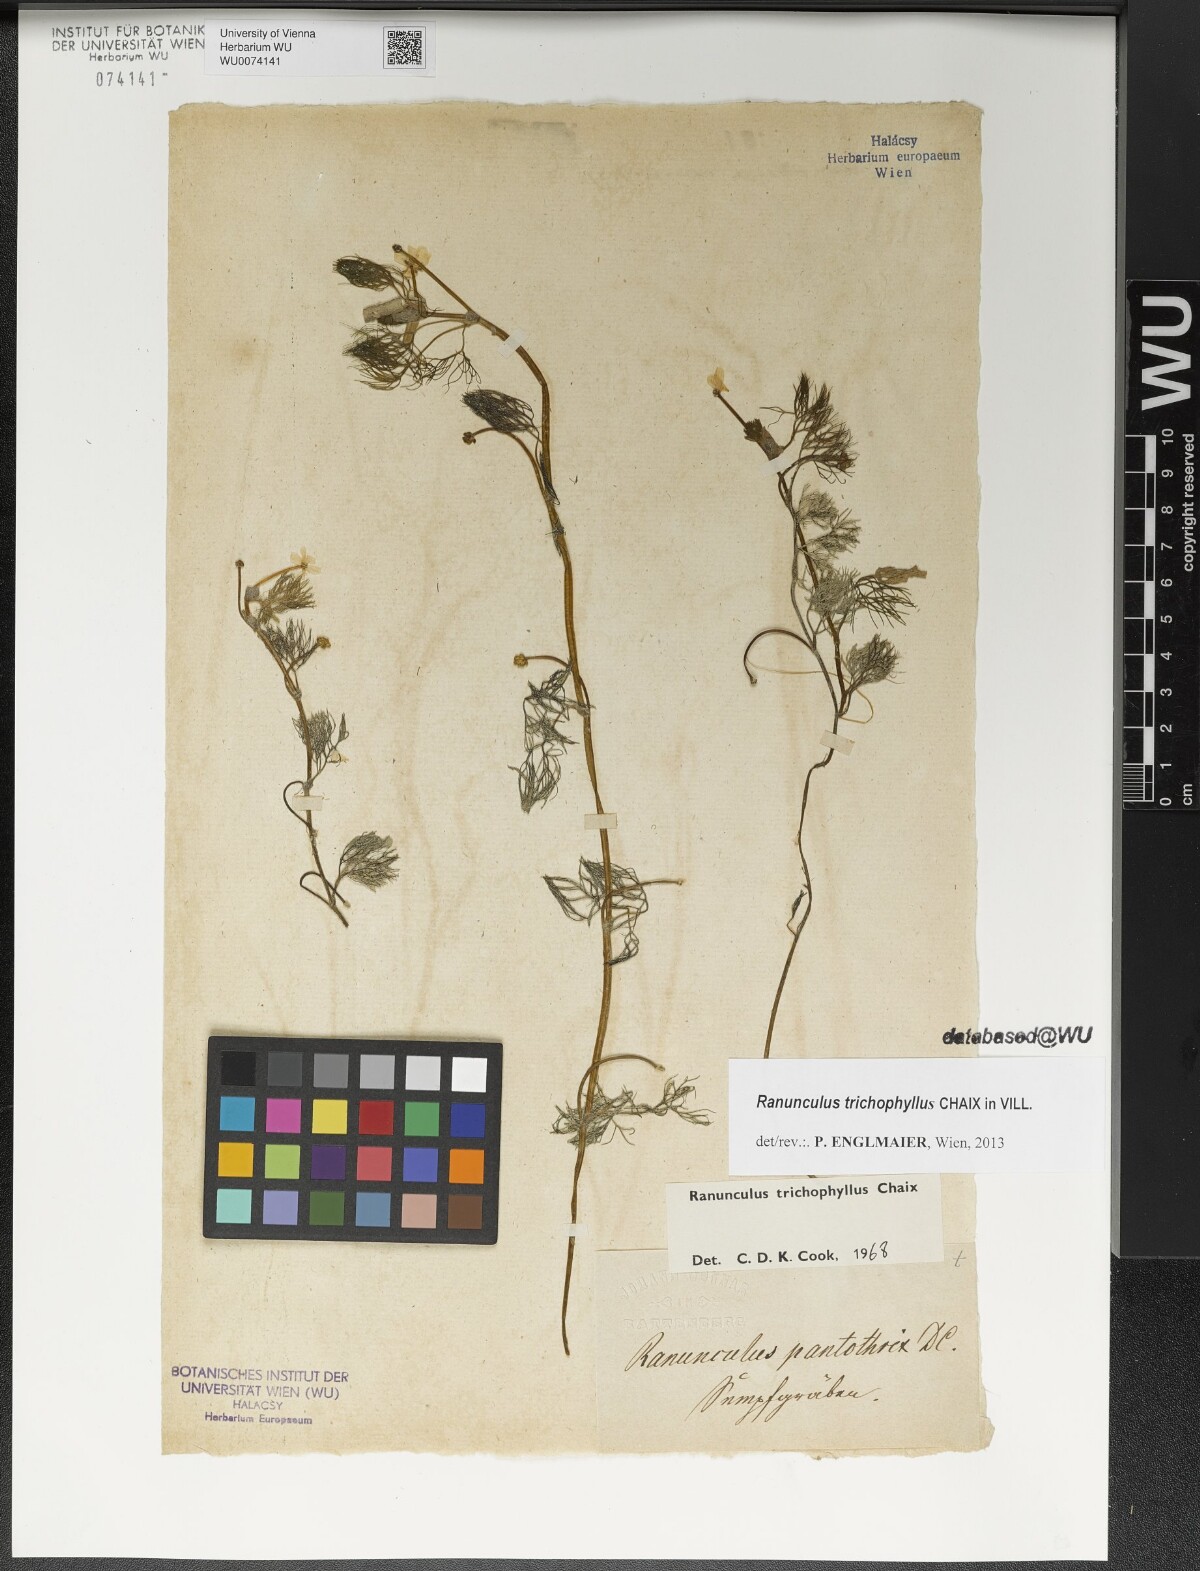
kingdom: Plantae
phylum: Tracheophyta
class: Magnoliopsida
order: Ranunculales
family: Ranunculaceae
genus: Ranunculus
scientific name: Ranunculus trichophyllus
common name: Thread-leaved water-crowfoot
